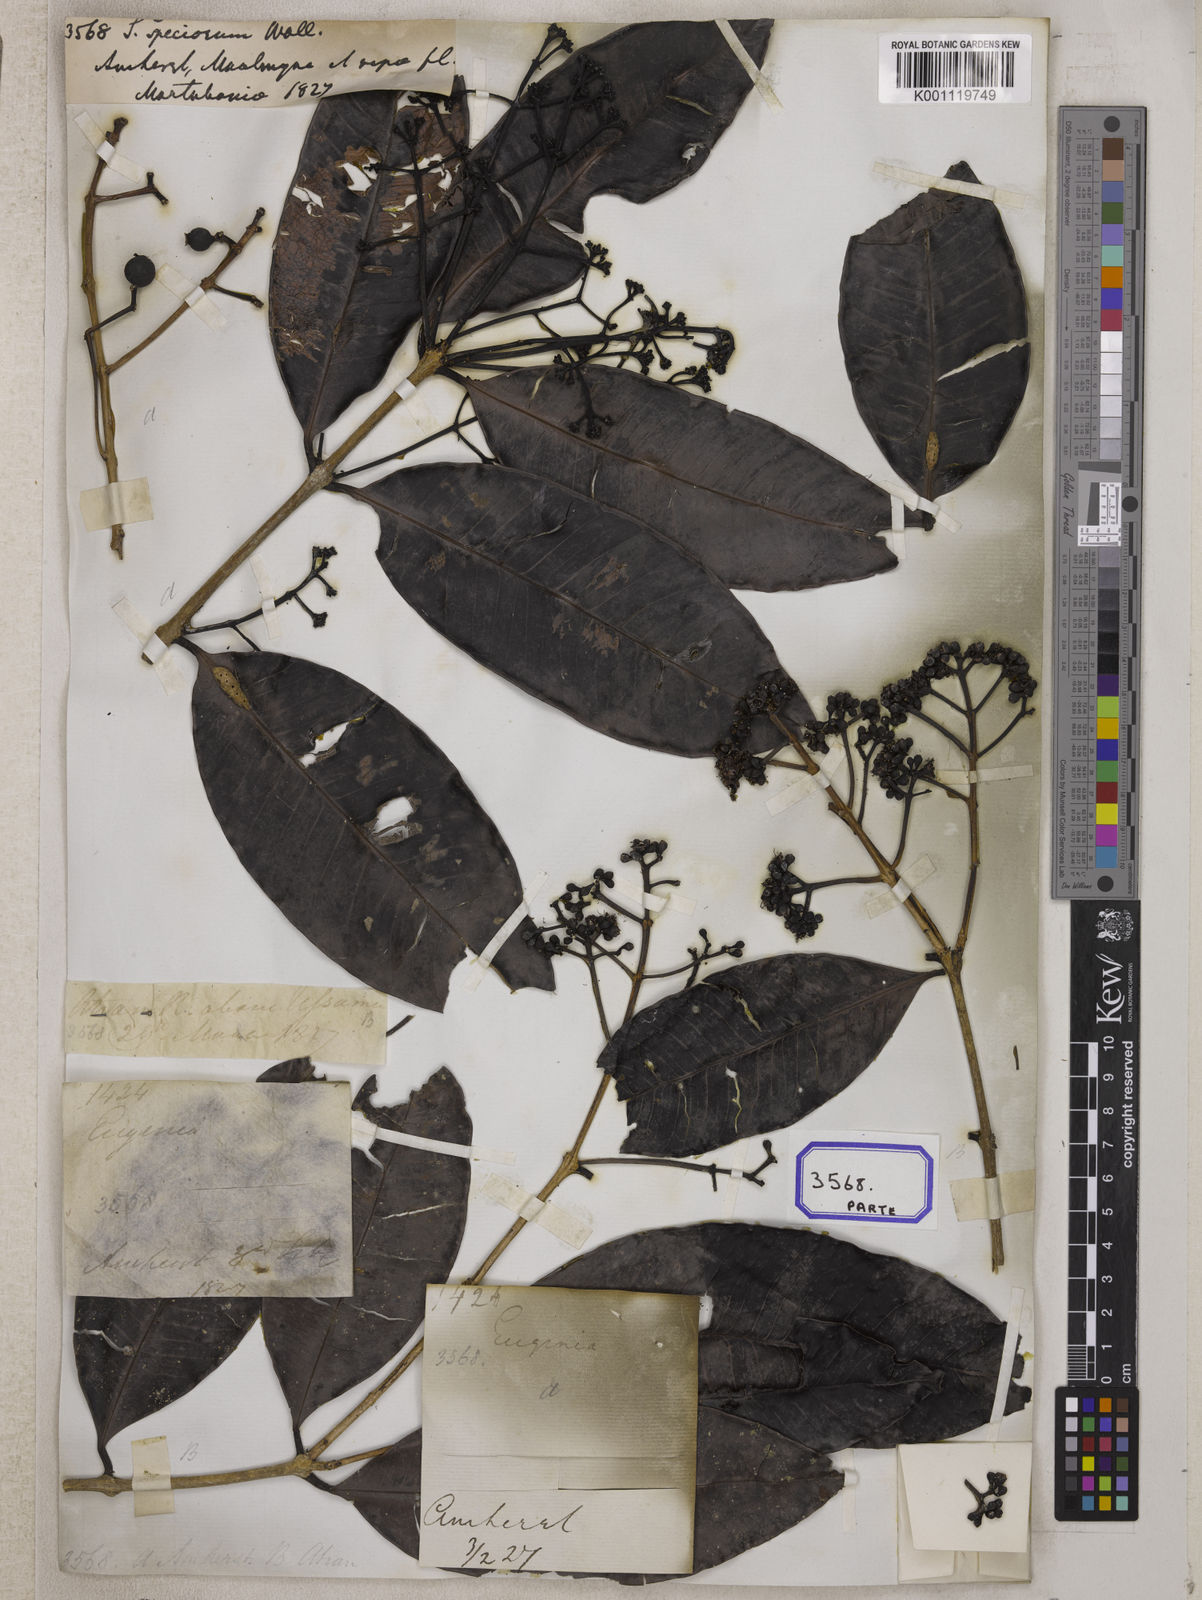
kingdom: Plantae
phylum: Tracheophyta
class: Magnoliopsida
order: Myrtales
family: Myrtaceae
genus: Syzygium
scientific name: Syzygium
